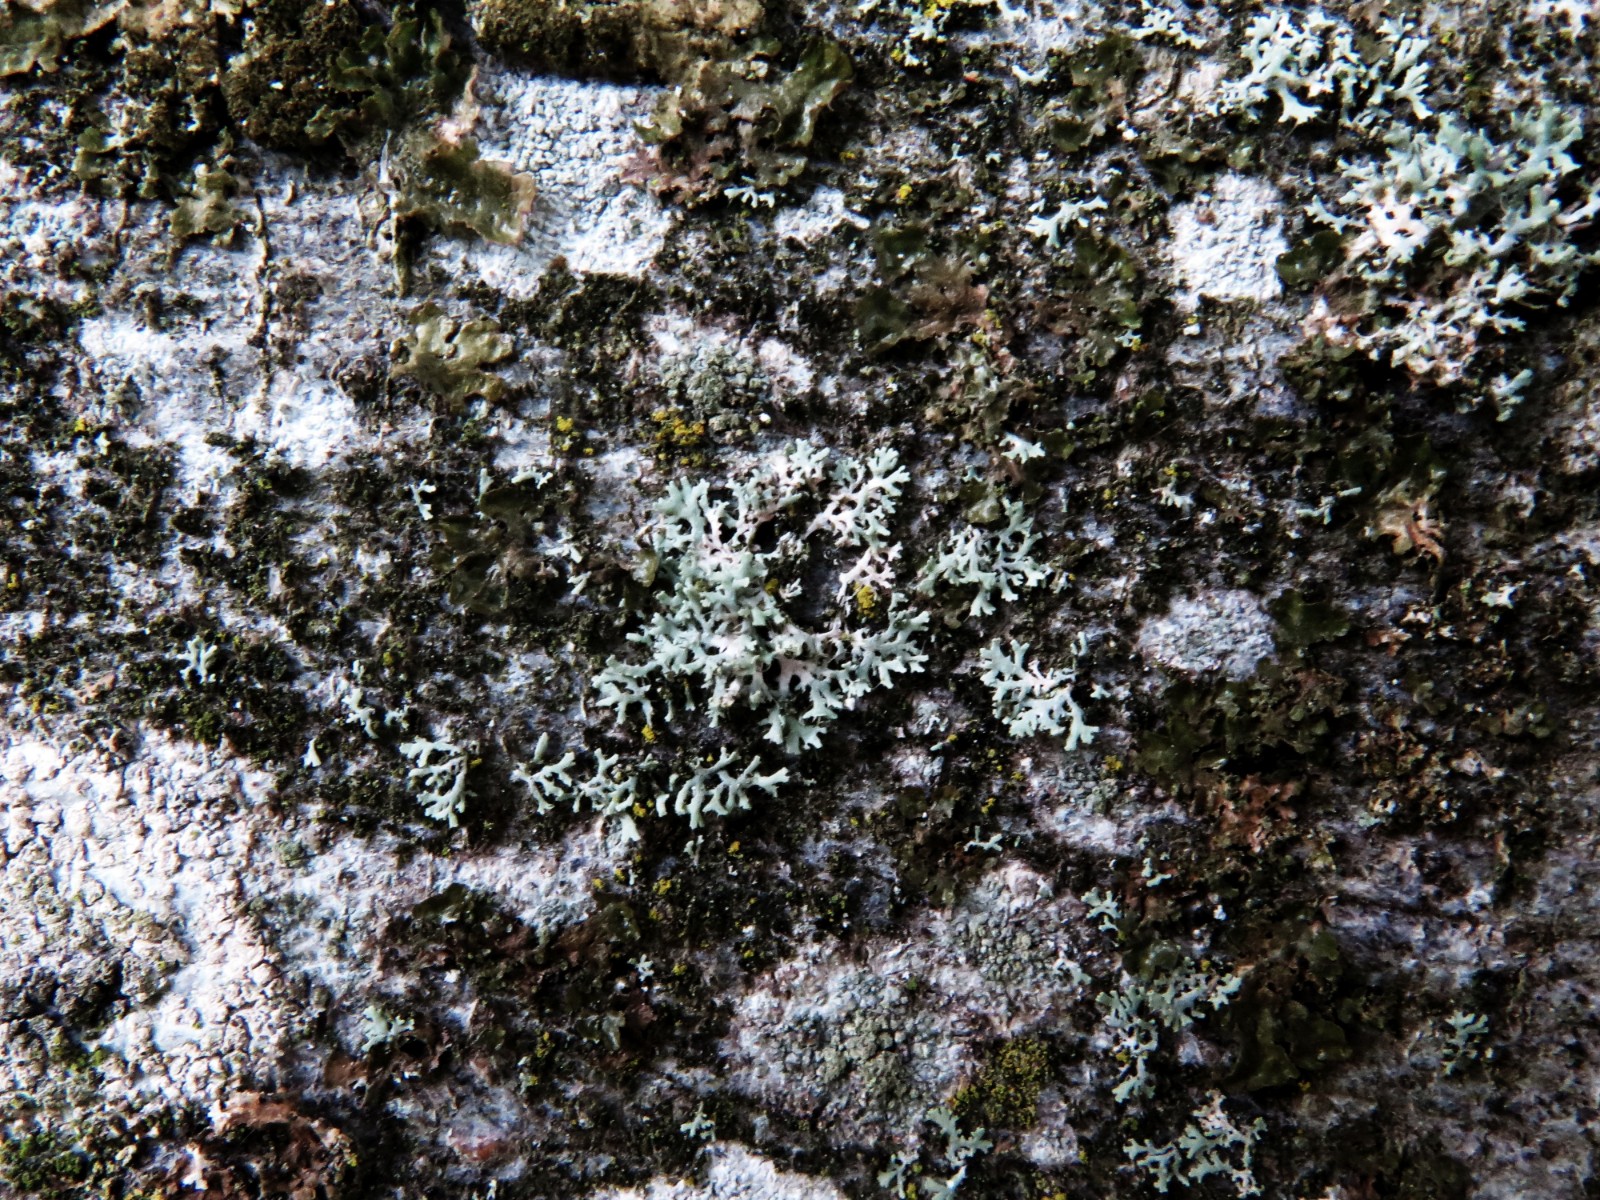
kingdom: Fungi
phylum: Basidiomycota
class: Agaricomycetes
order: Corticiales
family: Corticiaceae
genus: Erythricium
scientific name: Erythricium aurantiacum
